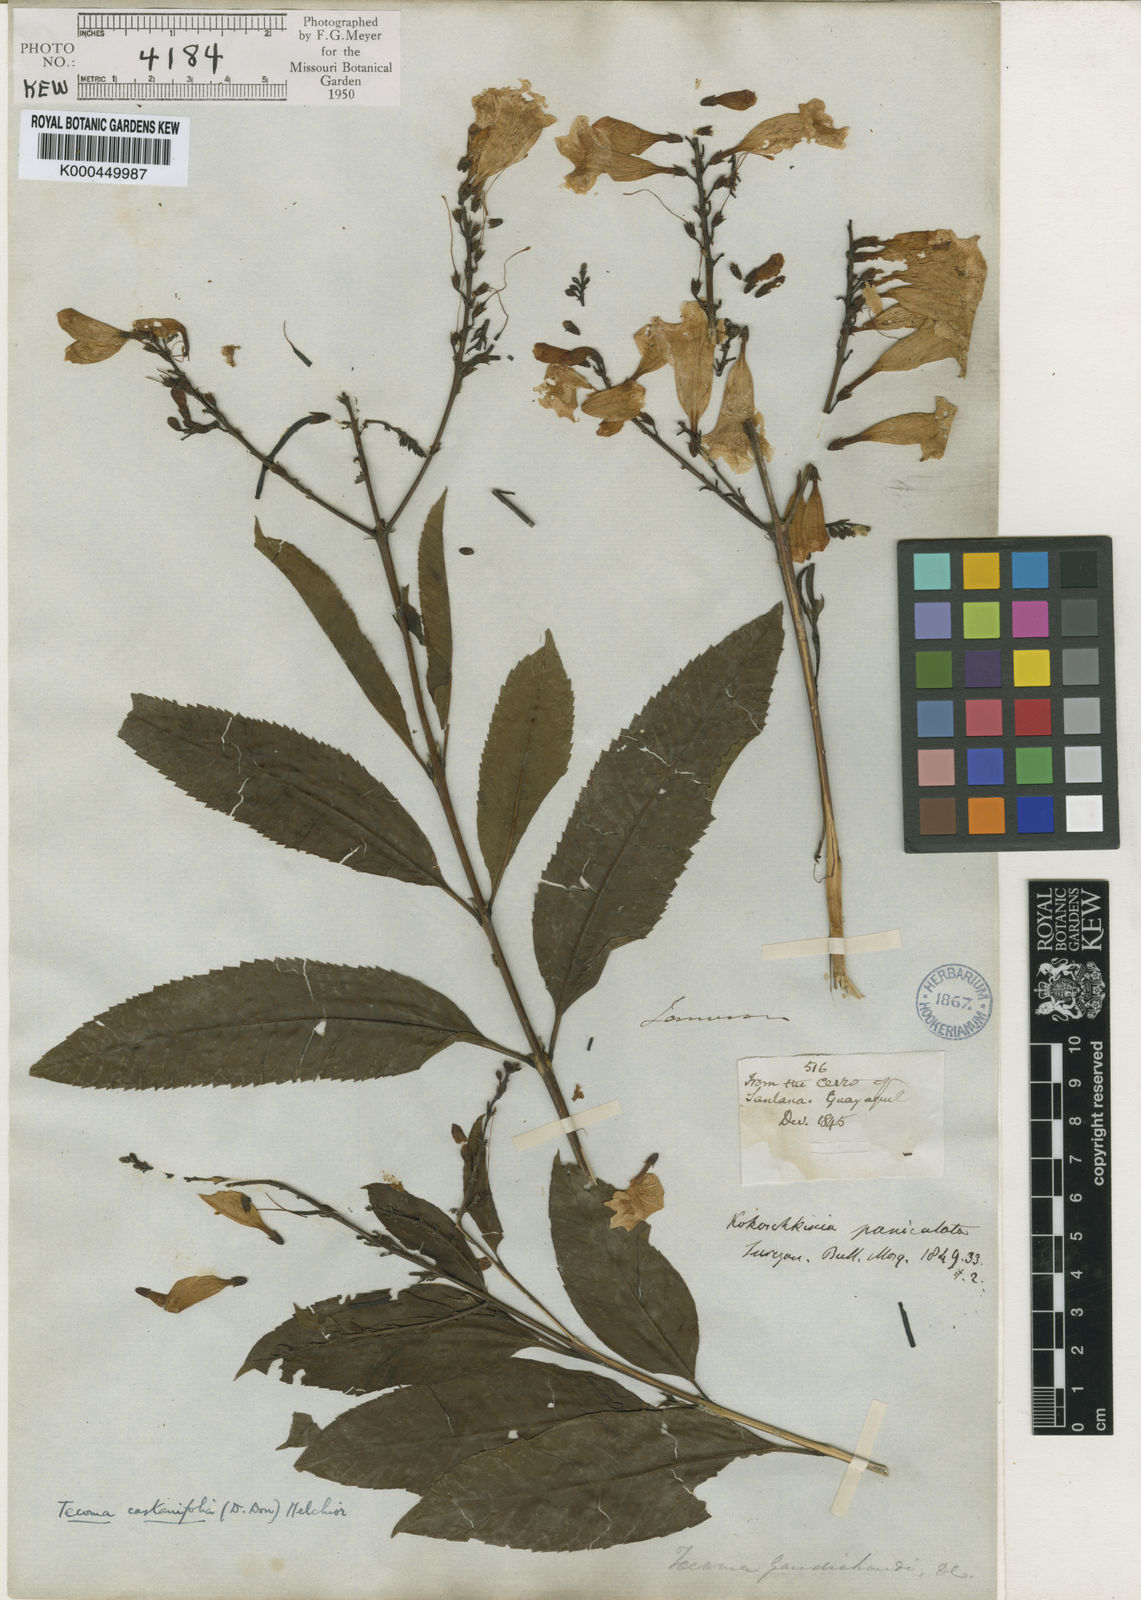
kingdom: Plantae
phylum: Tracheophyta
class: Magnoliopsida
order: Lamiales
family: Bignoniaceae
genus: Tecoma
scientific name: Tecoma castanifolia
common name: Chestnutleaf trumpetbush
